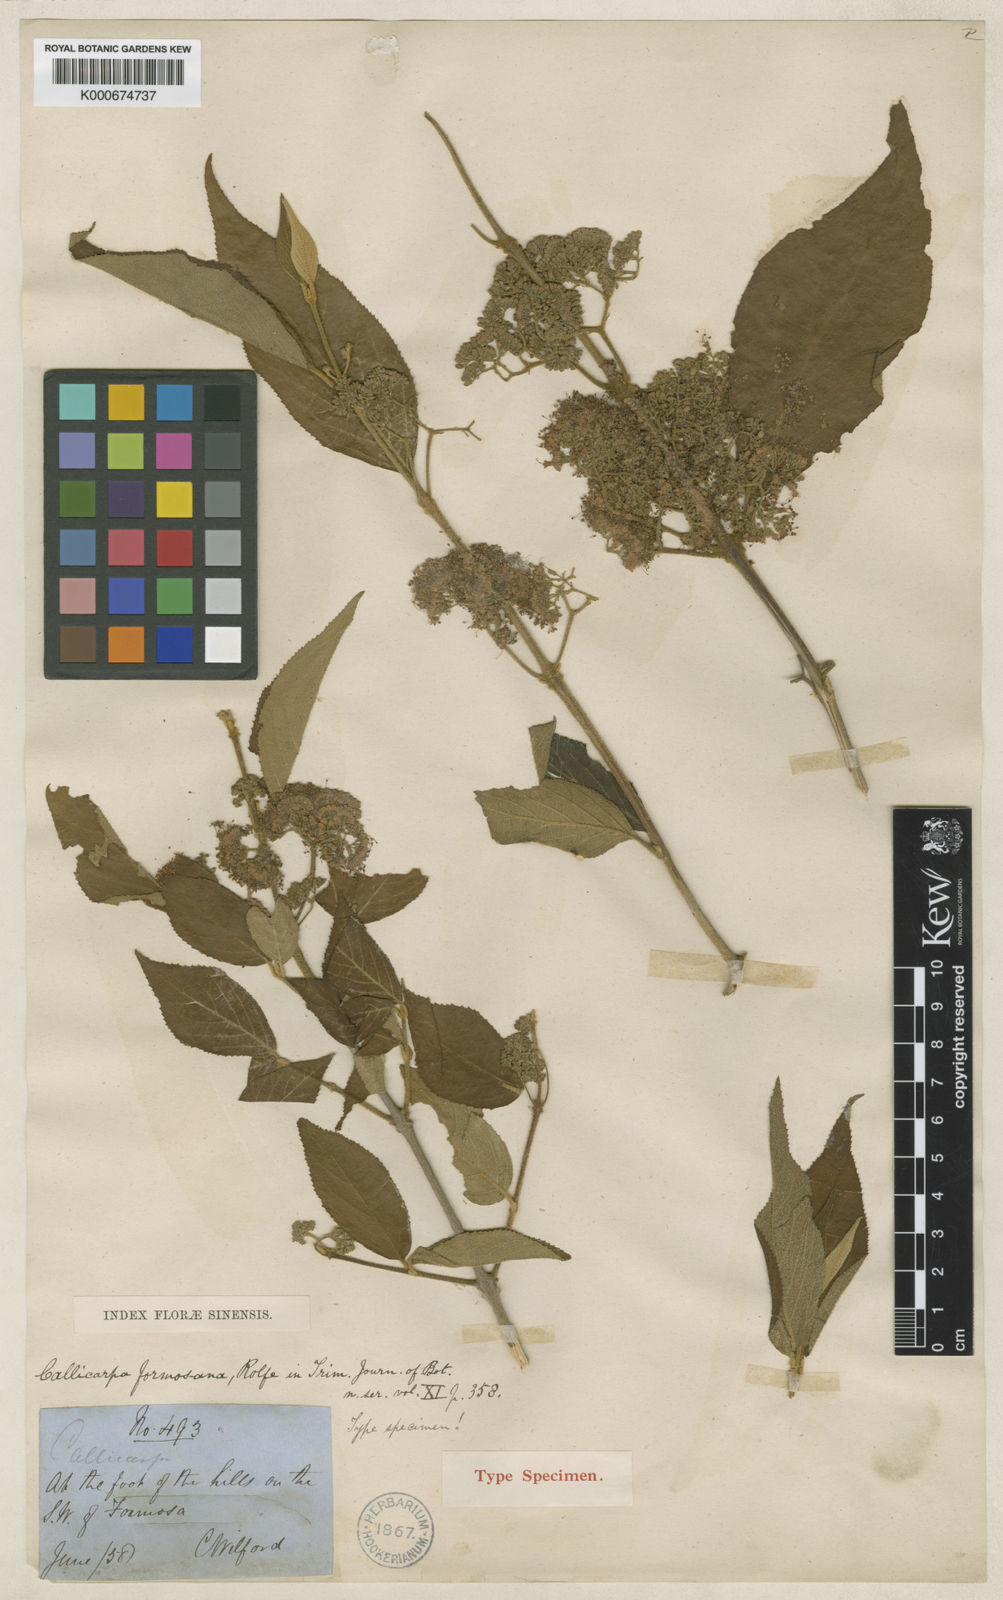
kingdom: Plantae
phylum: Tracheophyta
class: Magnoliopsida
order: Lamiales
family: Lamiaceae
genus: Callicarpa
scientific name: Callicarpa pedunculata
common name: Velvetleaf
